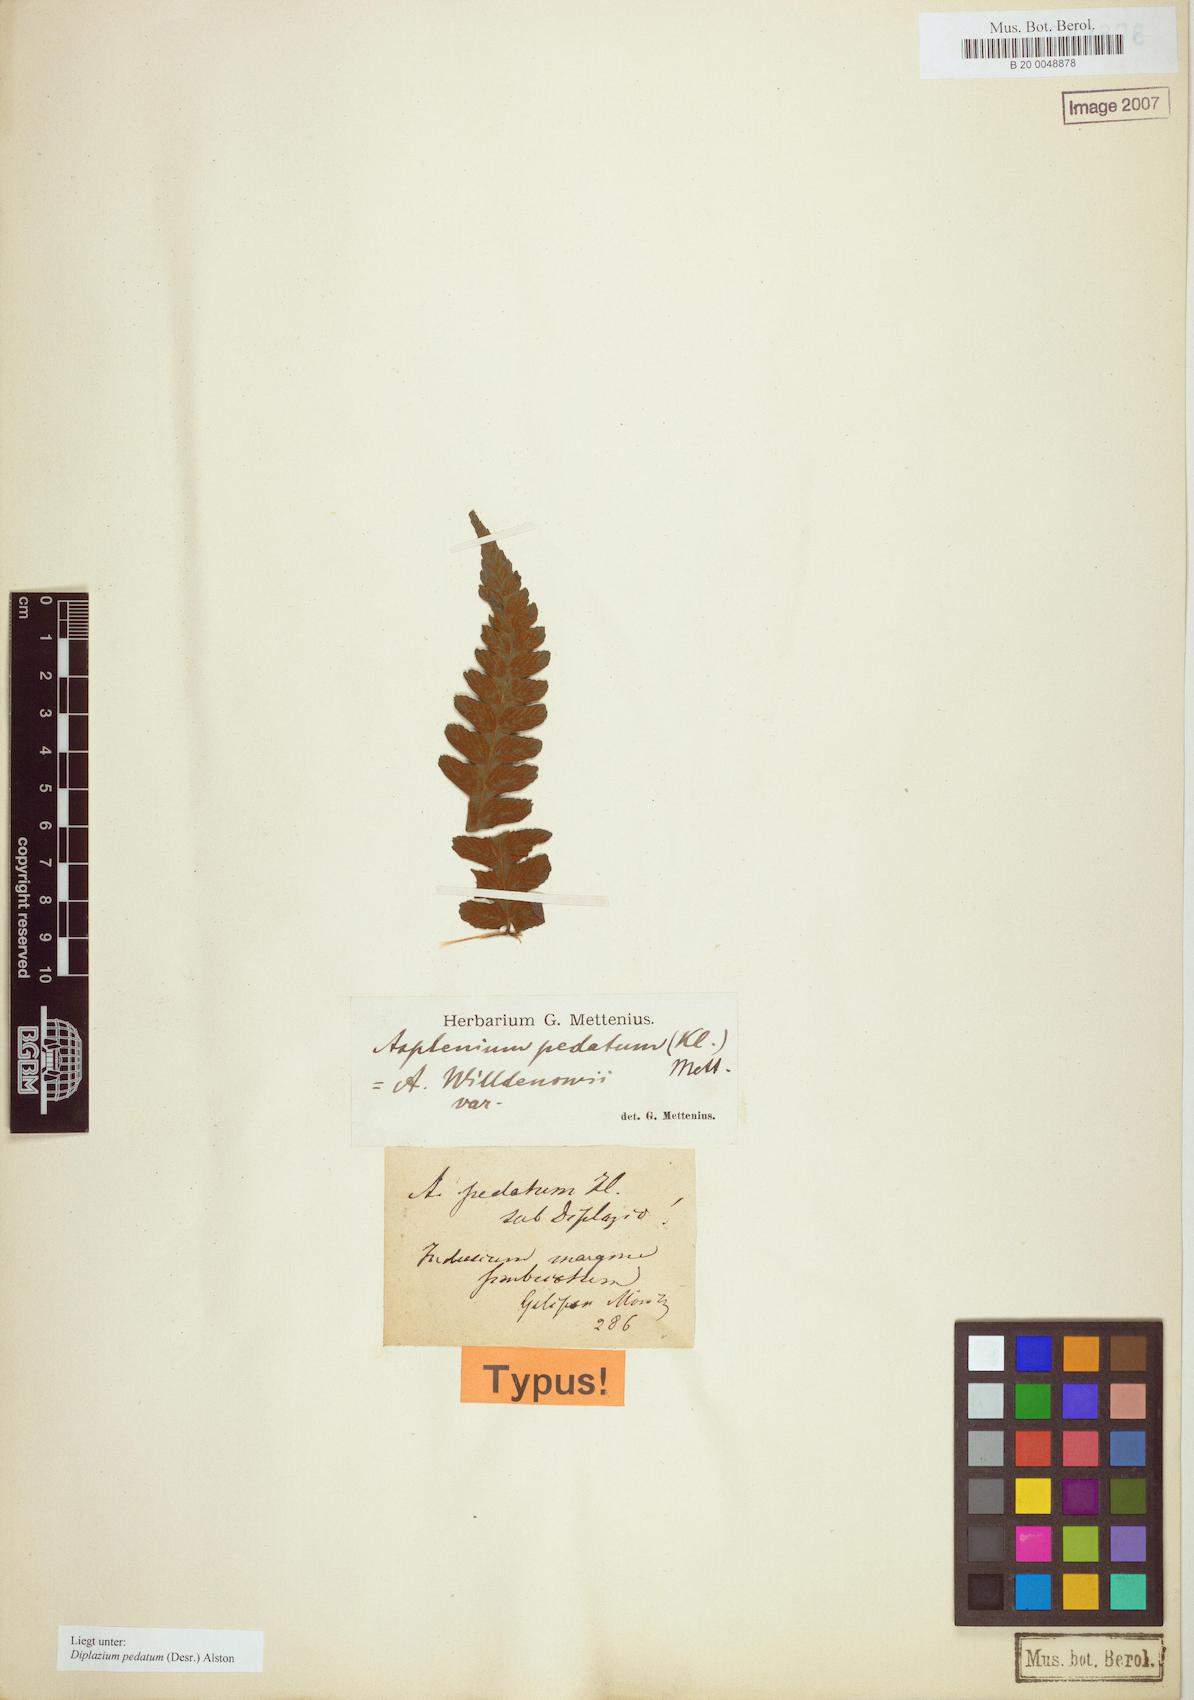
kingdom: Plantae
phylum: Tracheophyta
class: Polypodiopsida
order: Polypodiales
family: Athyriaceae
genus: Diplazium
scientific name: Diplazium pedatum
